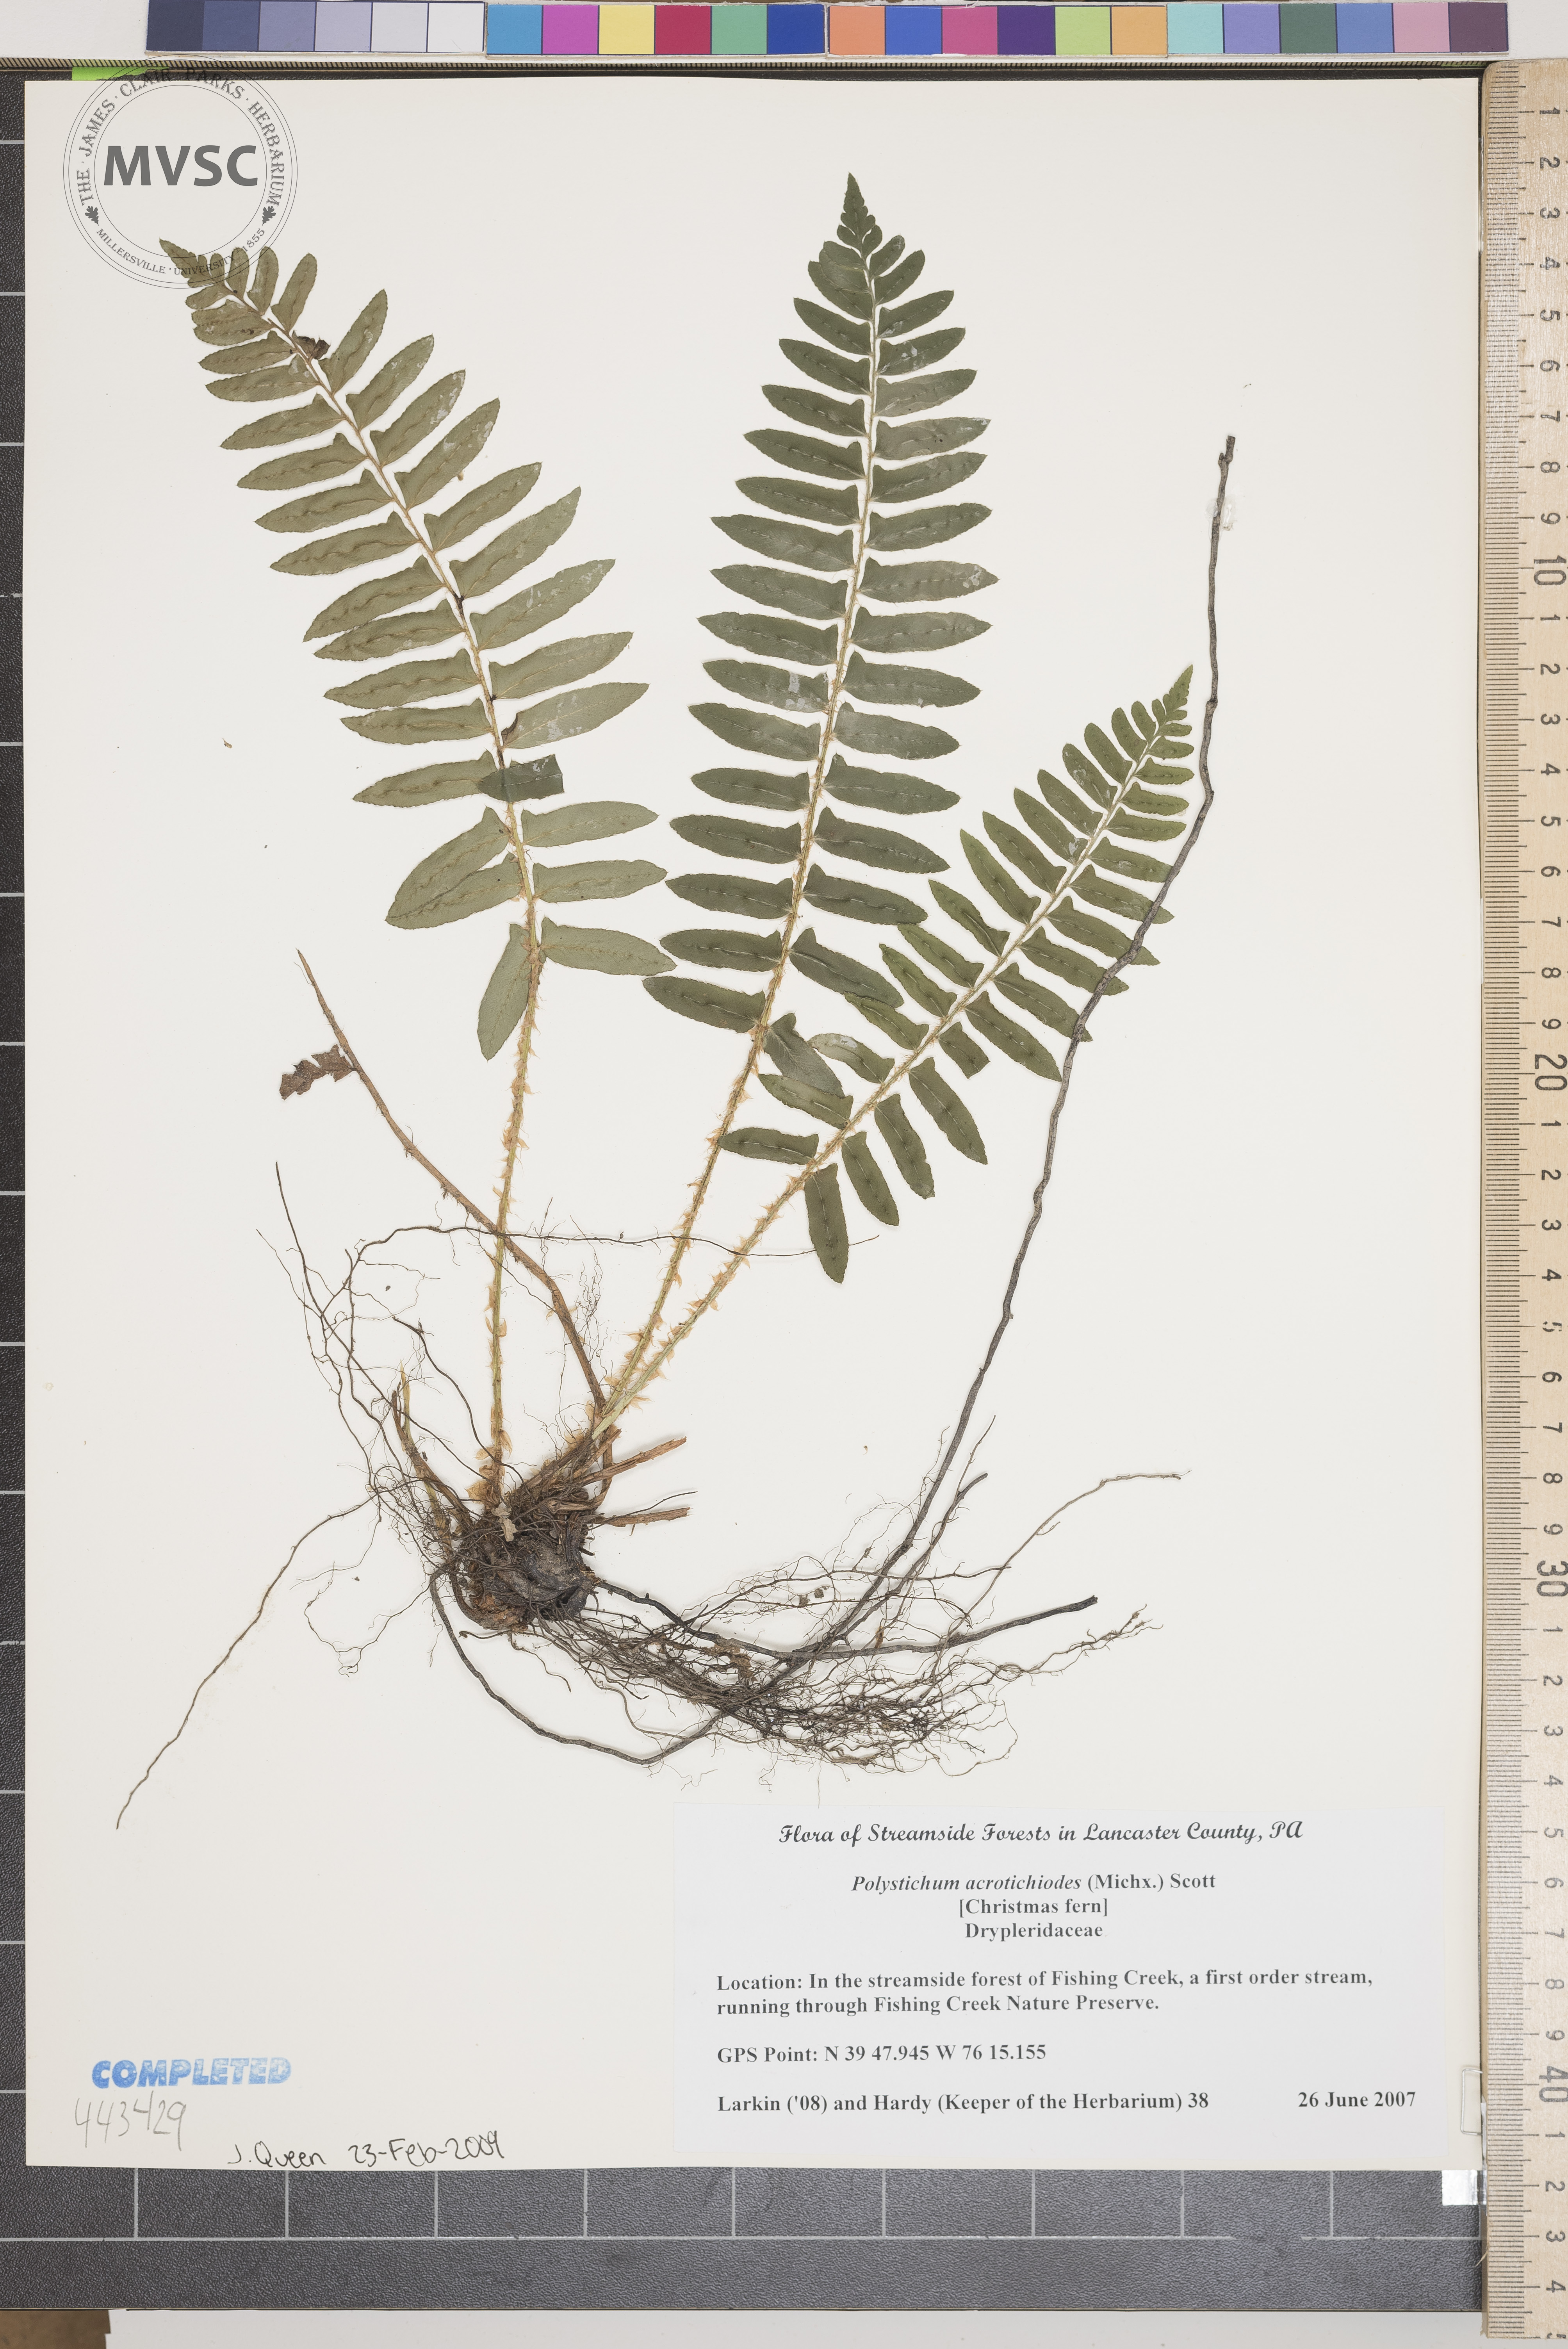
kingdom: Plantae
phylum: Tracheophyta
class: Polypodiopsida
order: Polypodiales
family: Dryopteridaceae
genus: Polystichum
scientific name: Polystichum acrostichoides
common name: Christmas Fern
